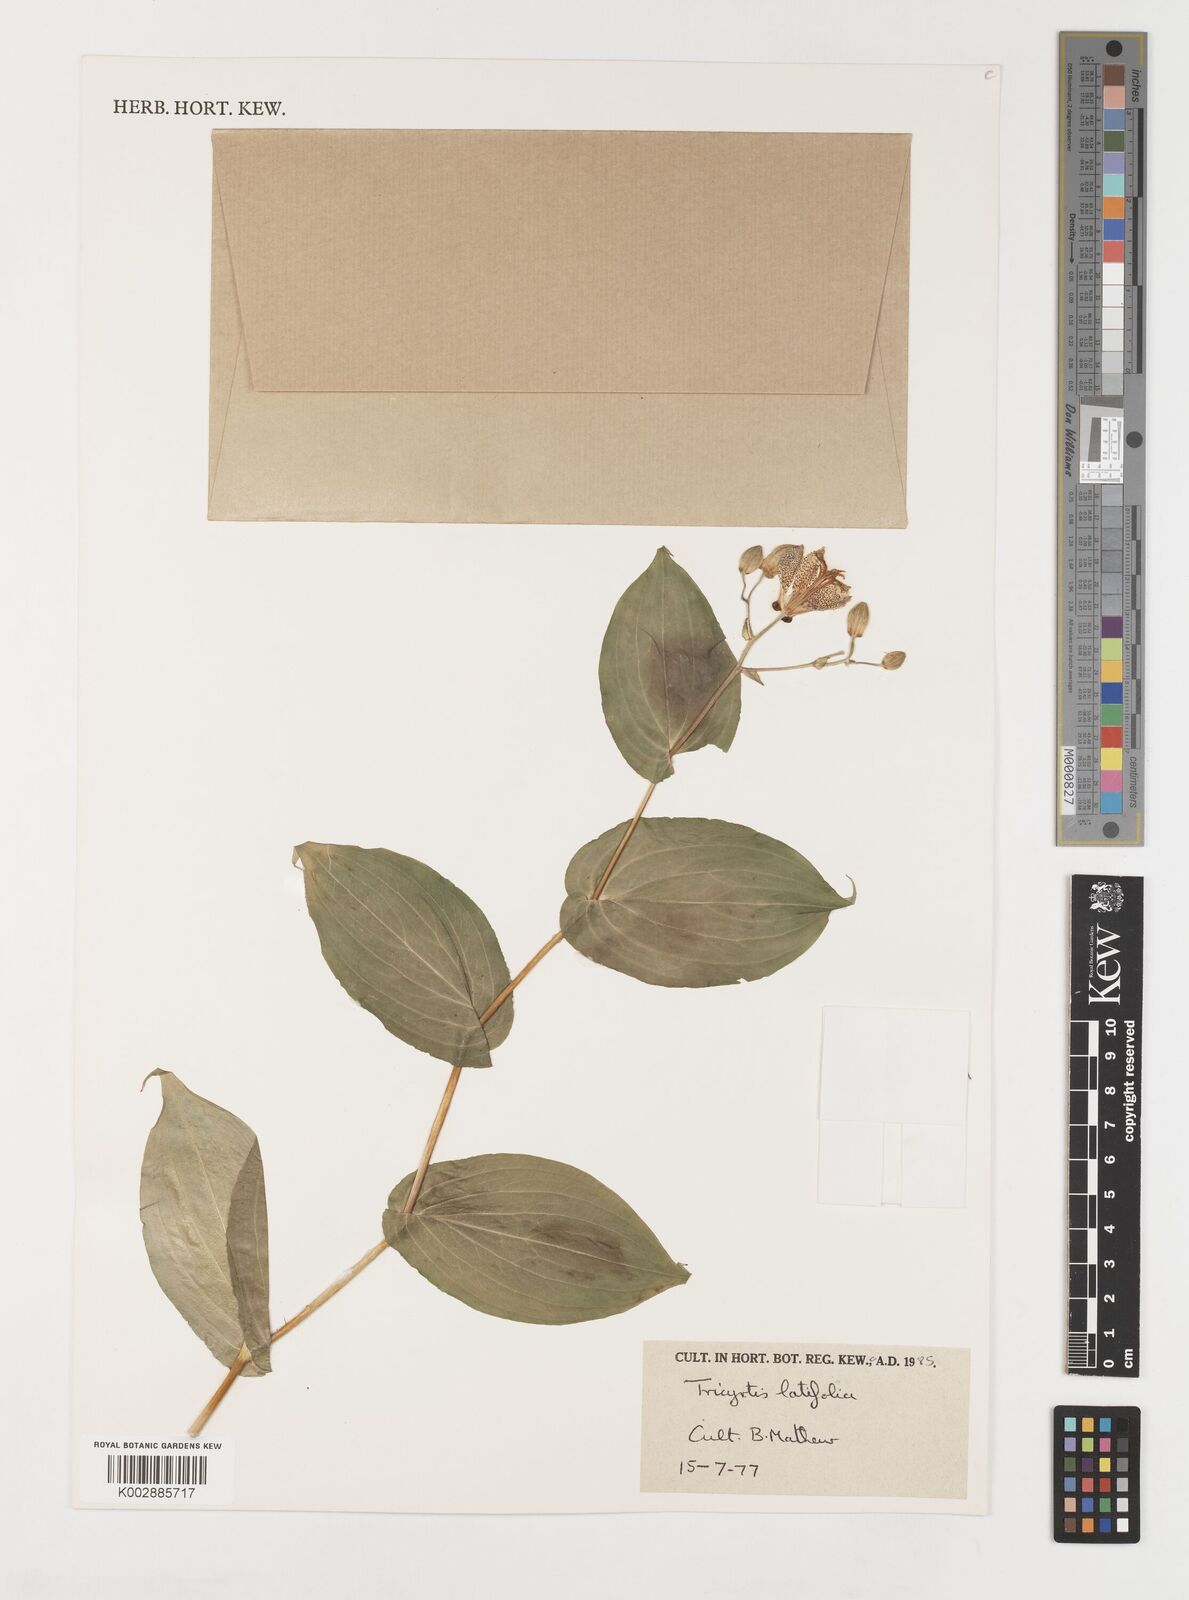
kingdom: Plantae
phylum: Tracheophyta
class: Liliopsida
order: Liliales
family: Liliaceae
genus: Tricyrtis
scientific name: Tricyrtis latifolia
